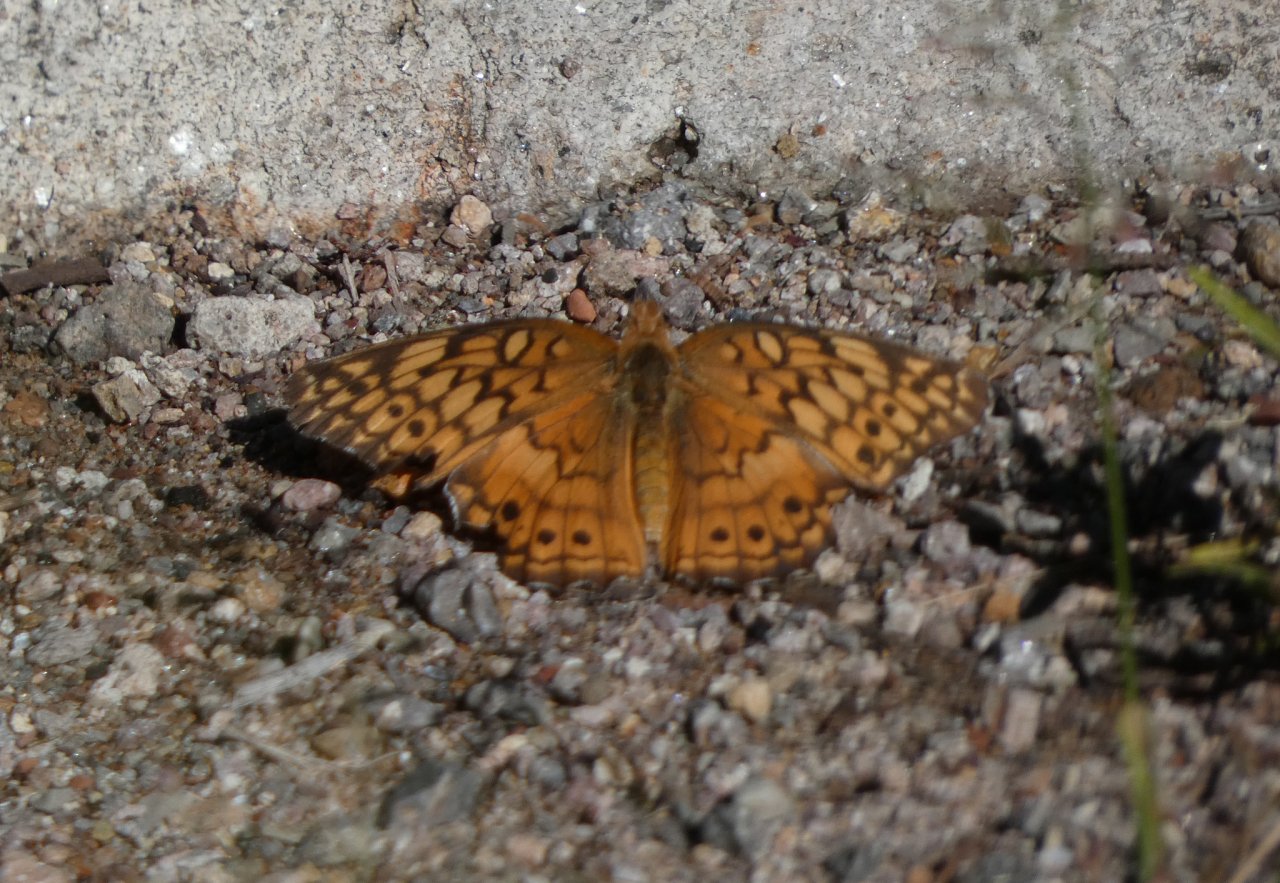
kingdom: Animalia
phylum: Arthropoda
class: Insecta
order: Lepidoptera
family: Nymphalidae
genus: Euptoieta
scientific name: Euptoieta claudia
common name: Variegated Fritillary
